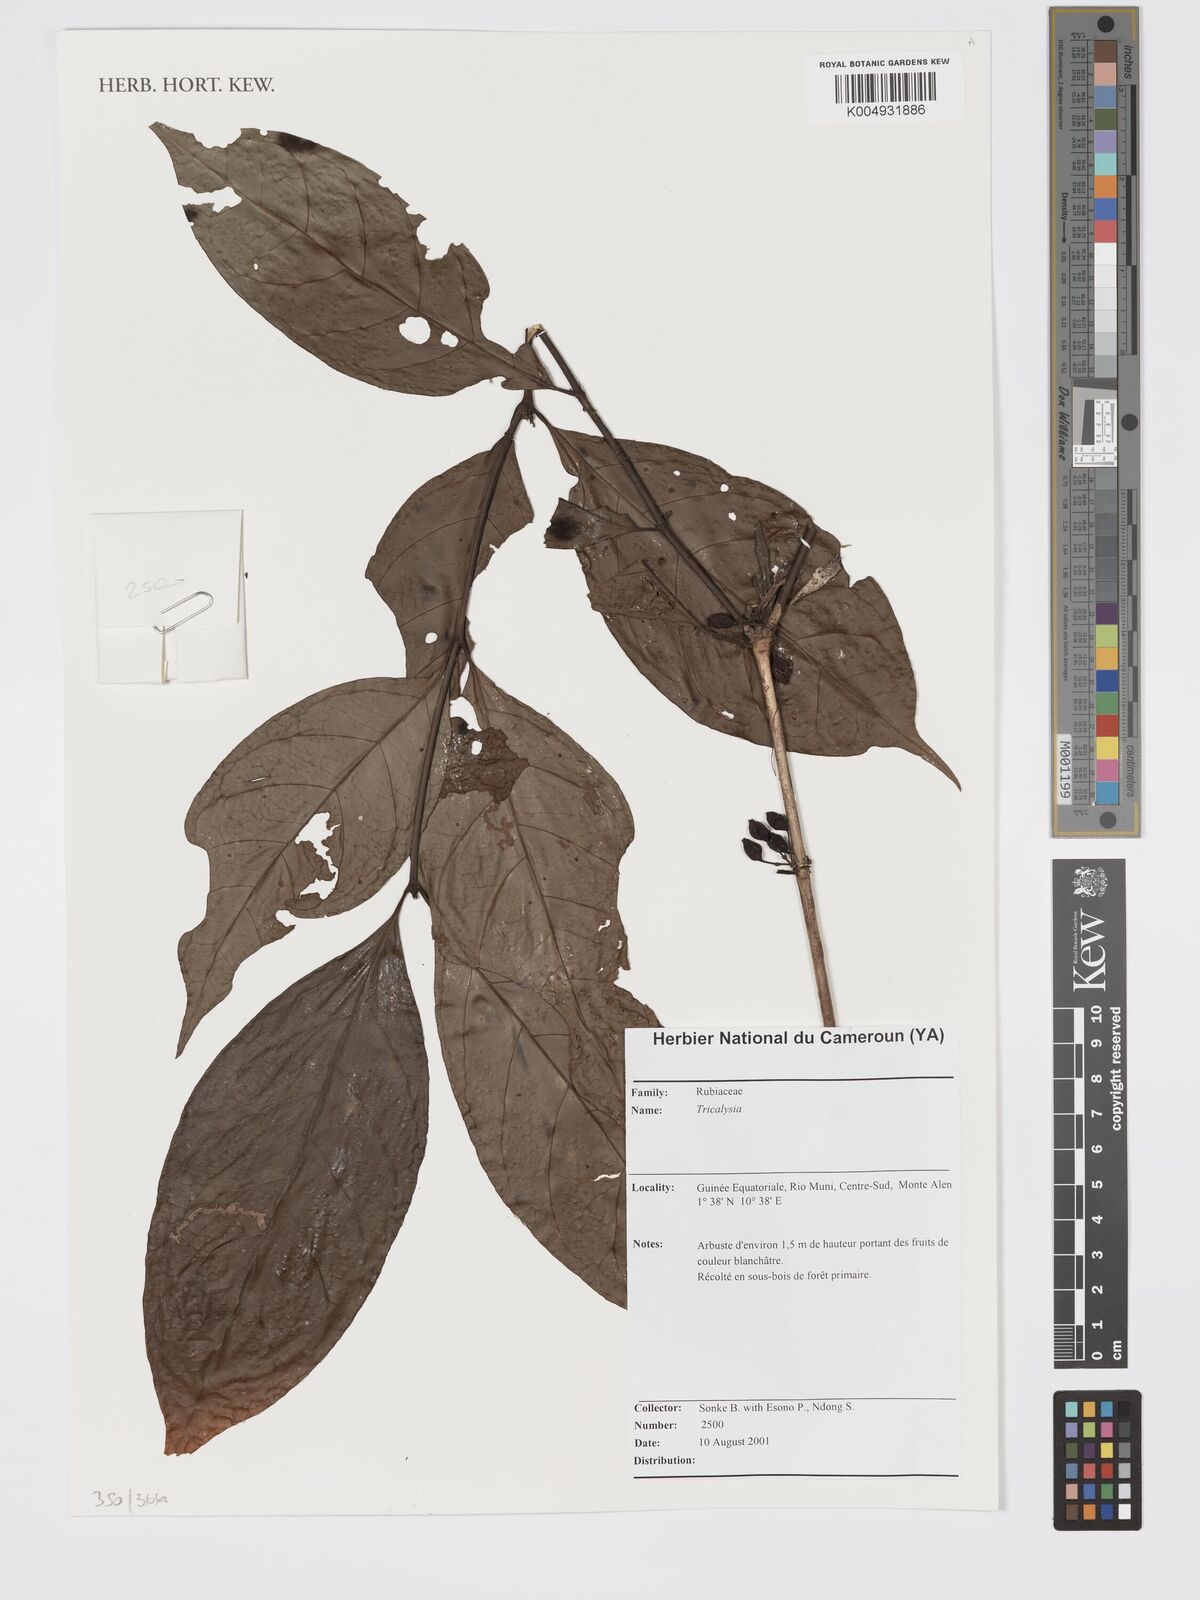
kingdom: Plantae
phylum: Tracheophyta
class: Magnoliopsida
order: Gentianales
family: Rubiaceae
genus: Tricalysia
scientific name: Tricalysia
